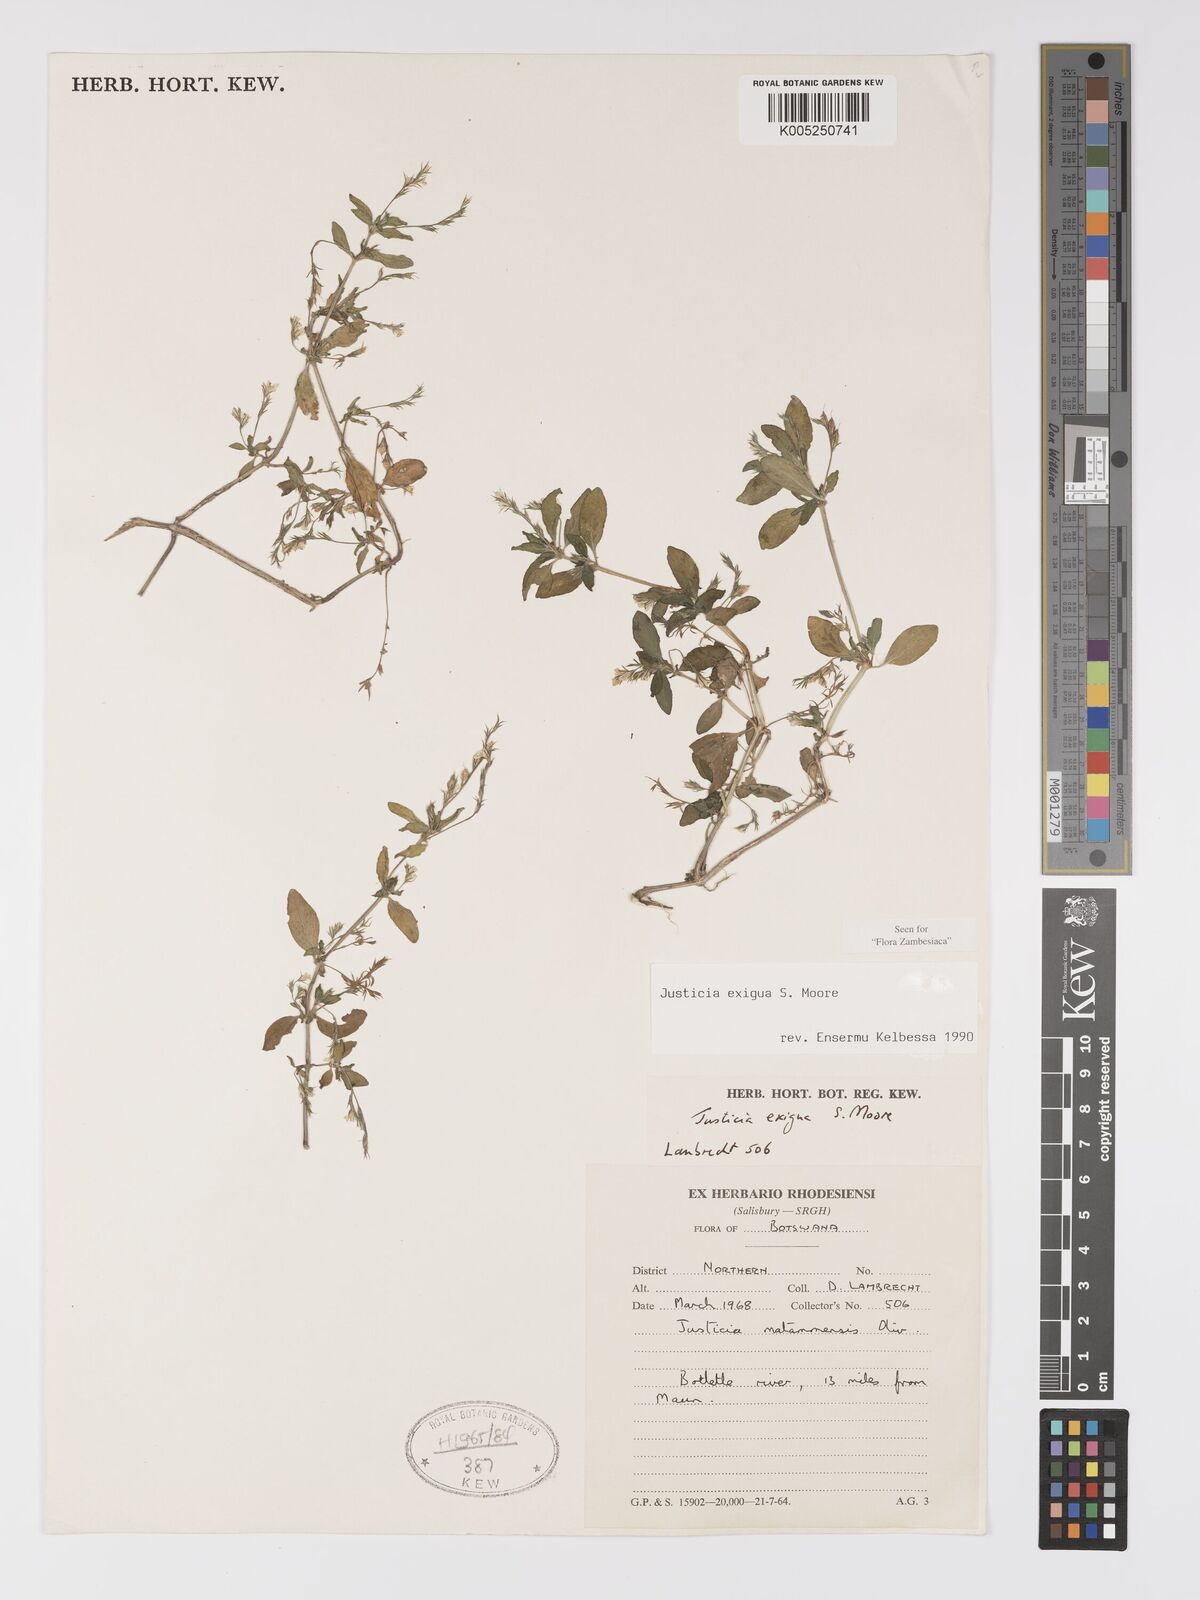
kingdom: Plantae
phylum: Tracheophyta
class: Magnoliopsida
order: Lamiales
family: Acanthaceae
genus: Justicia
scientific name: Justicia exigua
